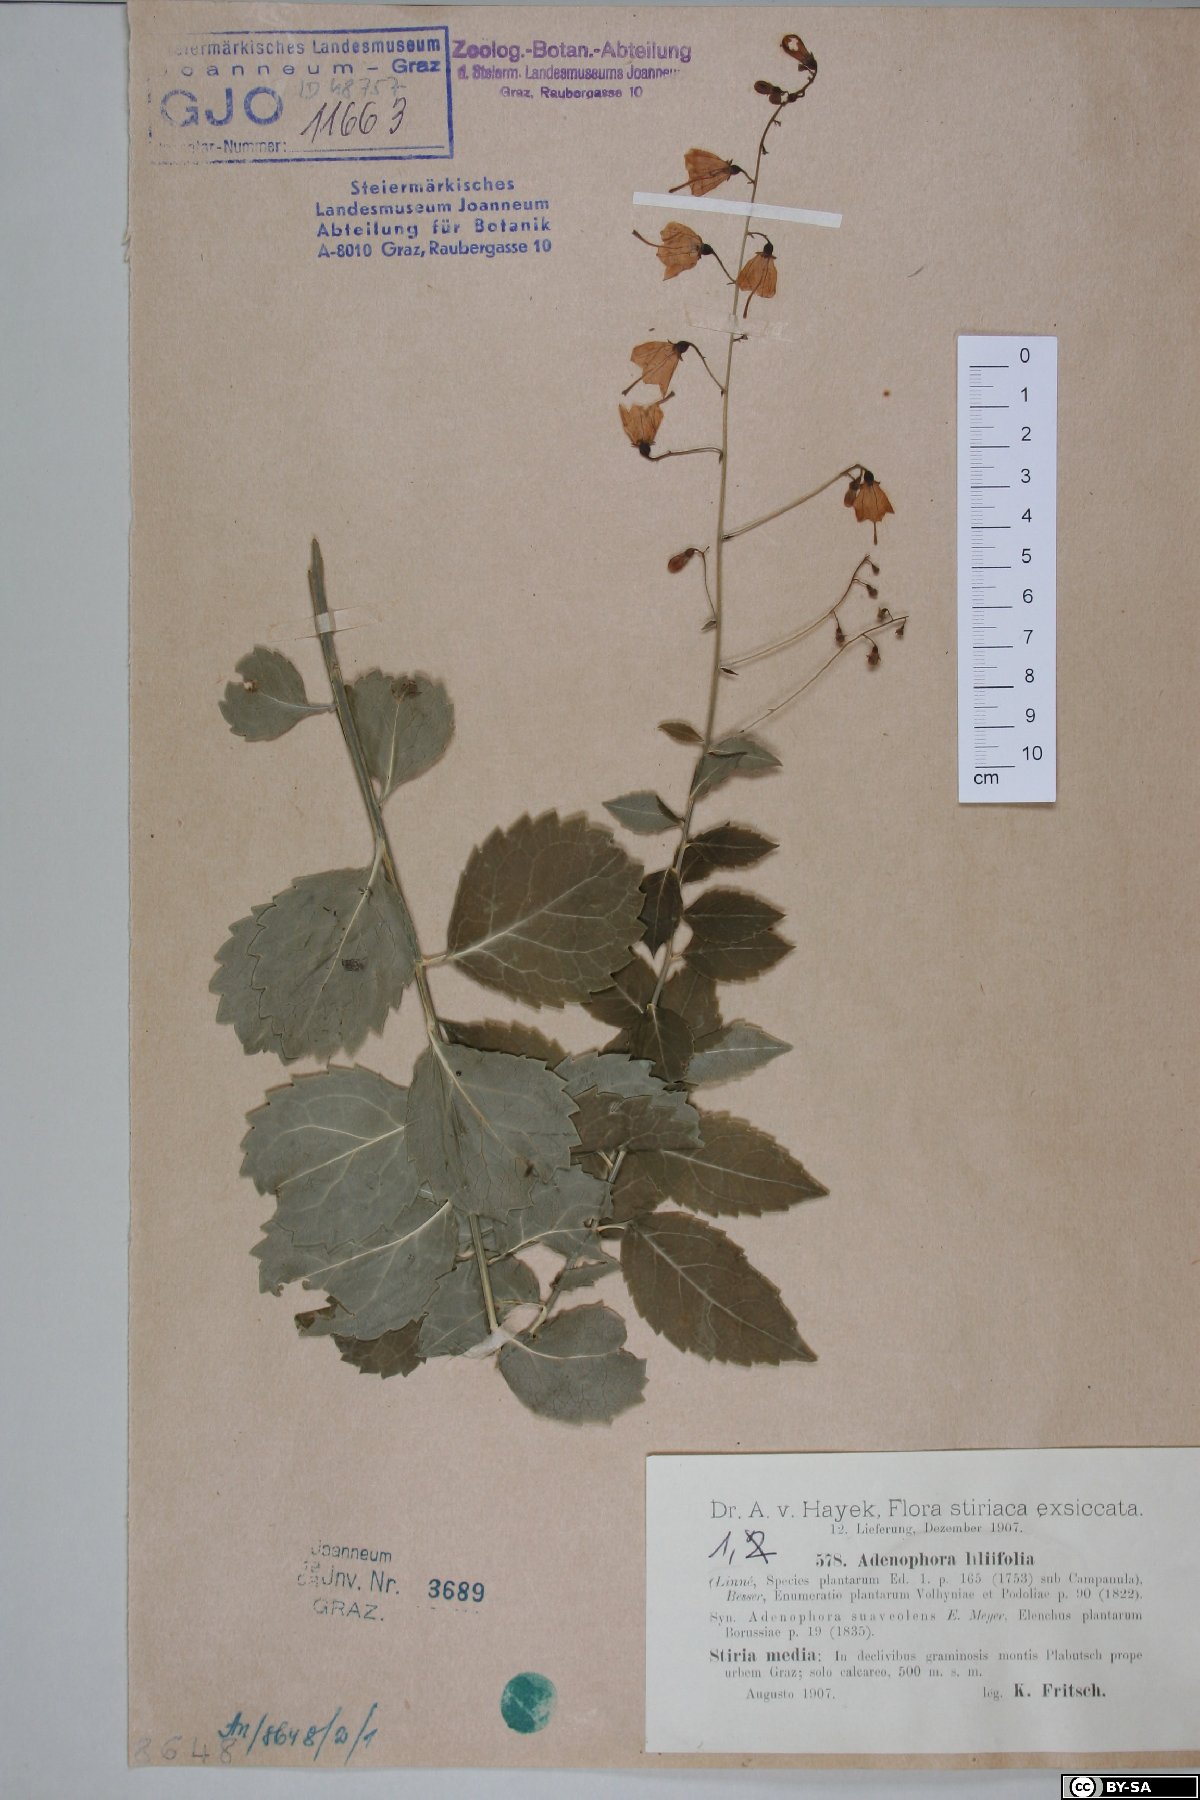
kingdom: Plantae
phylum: Tracheophyta
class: Magnoliopsida
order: Asterales
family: Campanulaceae
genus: Adenophora
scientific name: Adenophora liliifolia
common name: Lilyleaf ladybells
